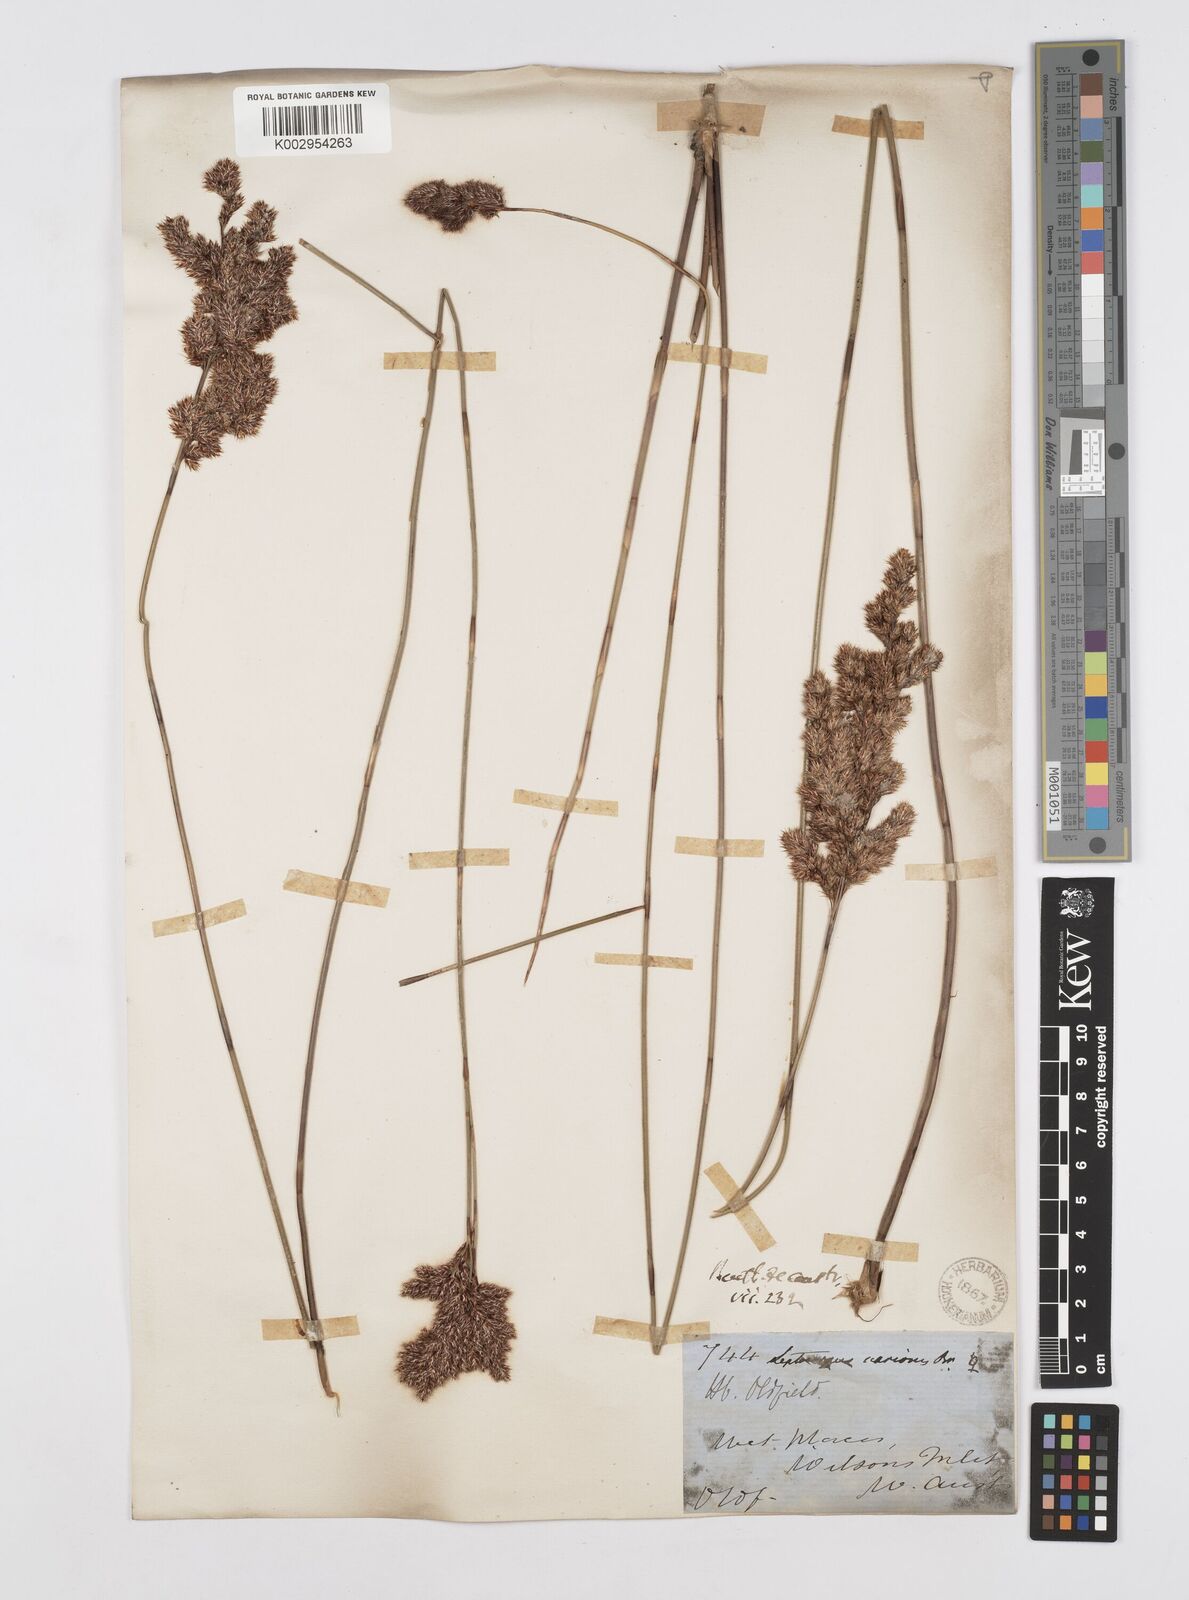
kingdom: Plantae
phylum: Tracheophyta
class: Liliopsida
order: Poales
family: Restionaceae
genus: Leptocarpus
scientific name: Leptocarpus scariosus
